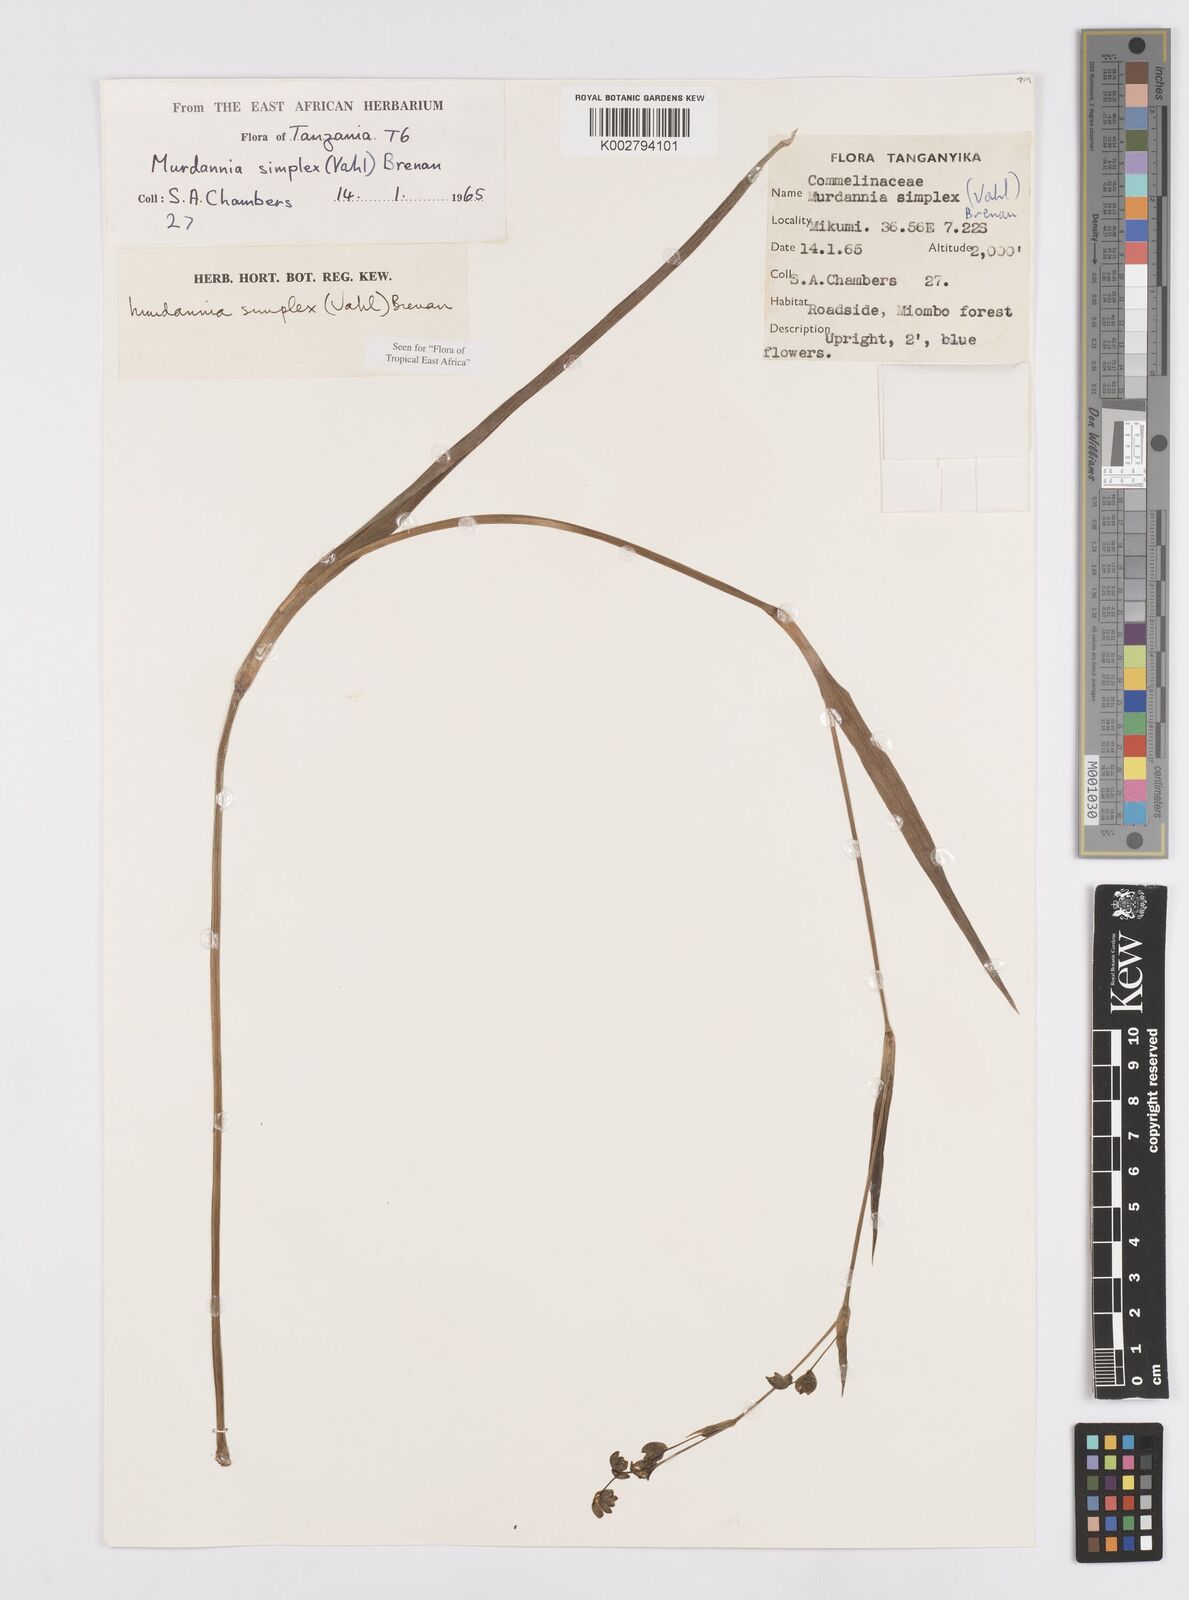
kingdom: Plantae
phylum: Tracheophyta
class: Liliopsida
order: Commelinales
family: Commelinaceae
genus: Murdannia
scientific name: Murdannia simplex
